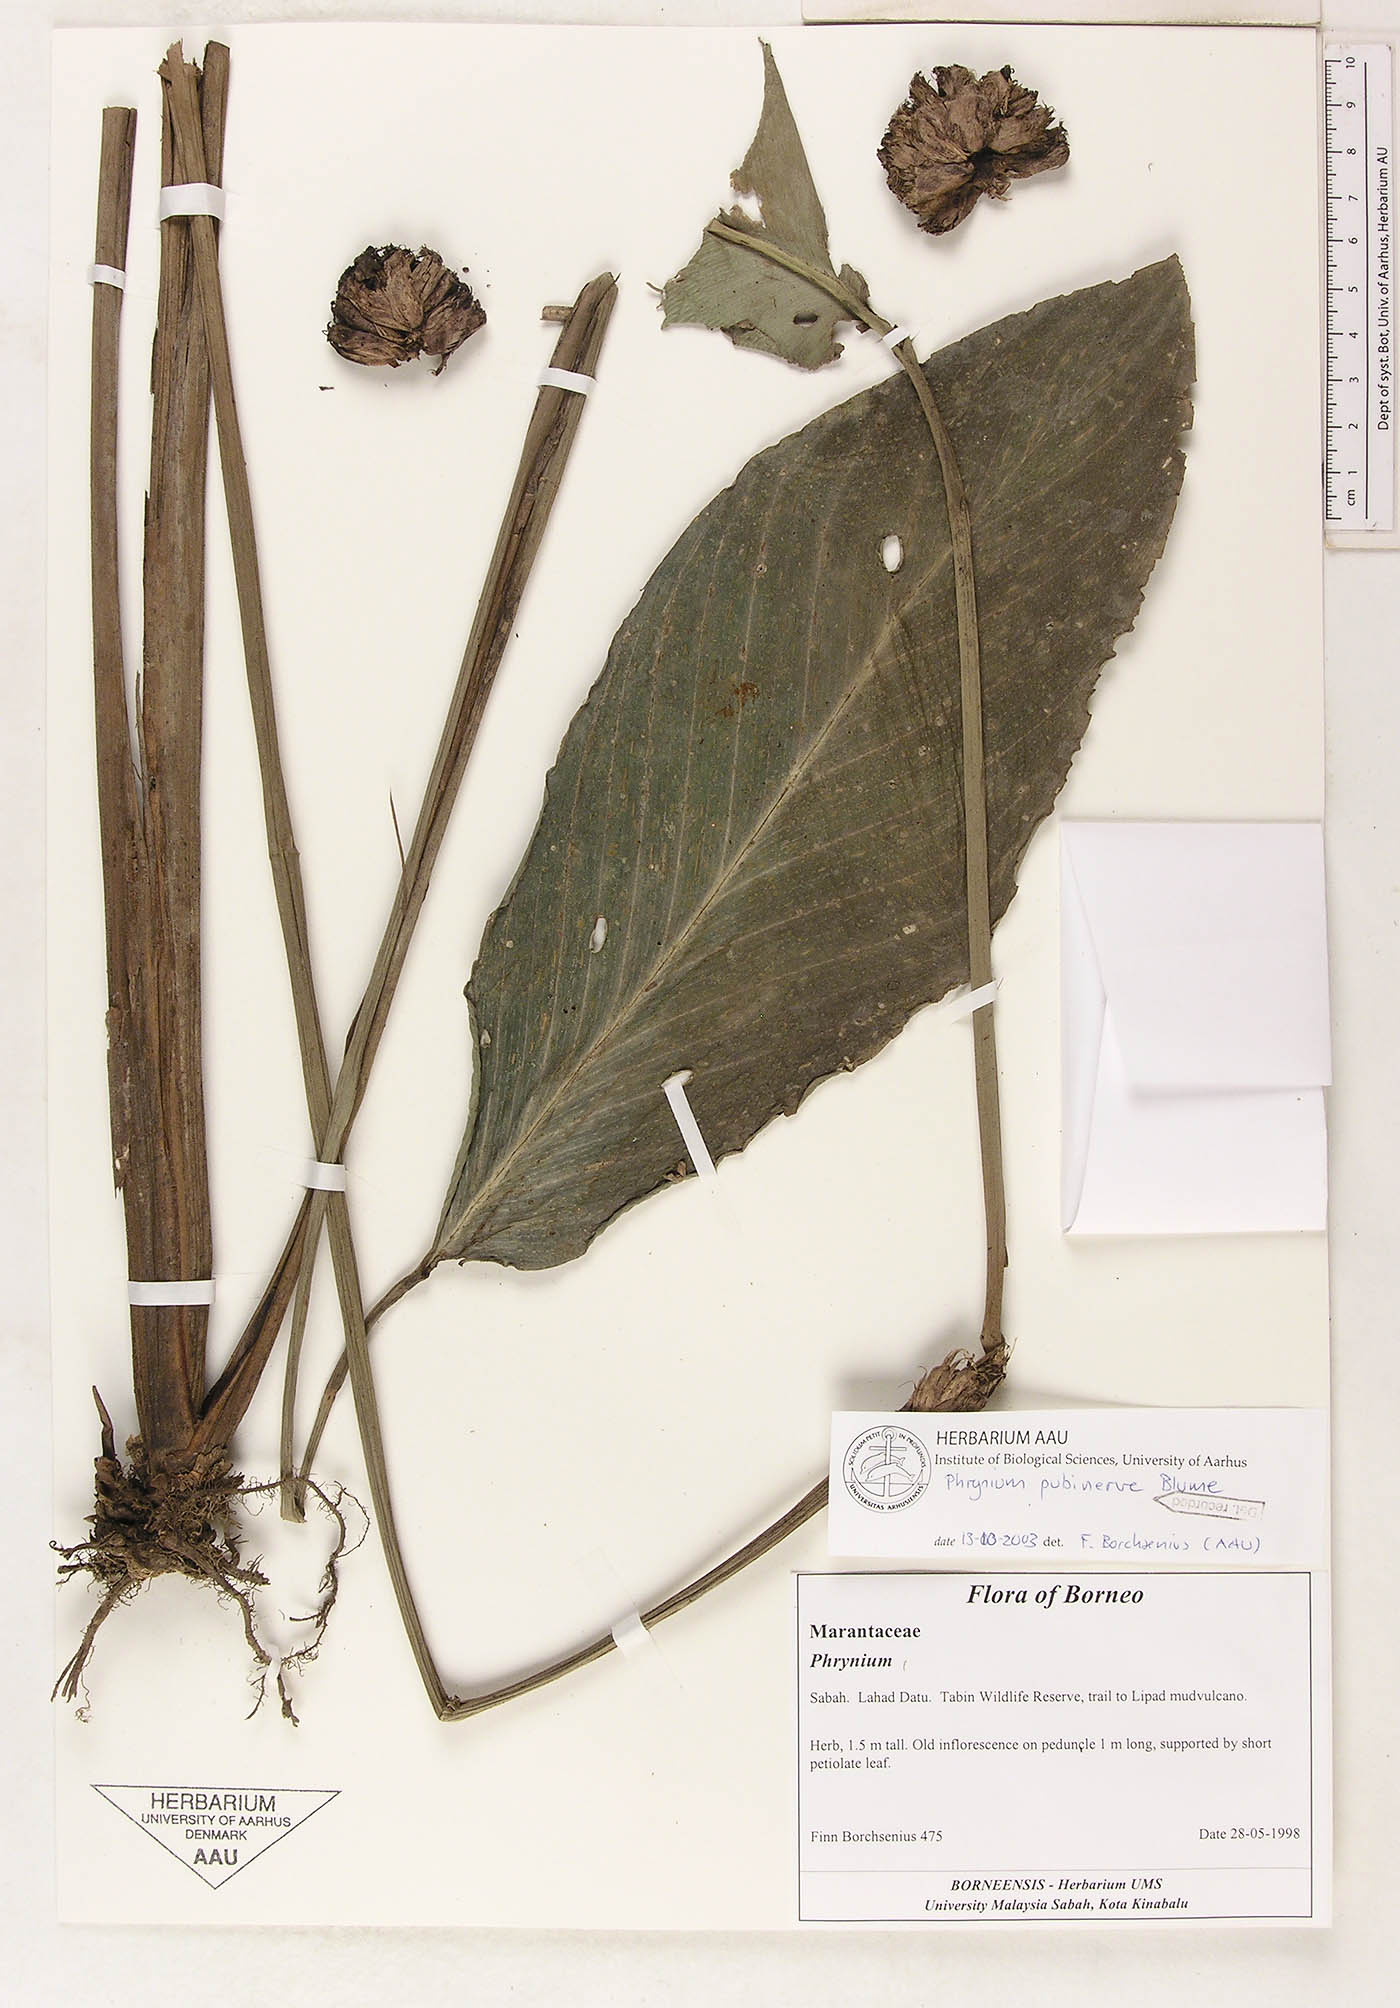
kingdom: Plantae
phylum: Tracheophyta
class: Liliopsida
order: Zingiberales
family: Marantaceae
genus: Phrynium
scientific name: Phrynium pubinerve
